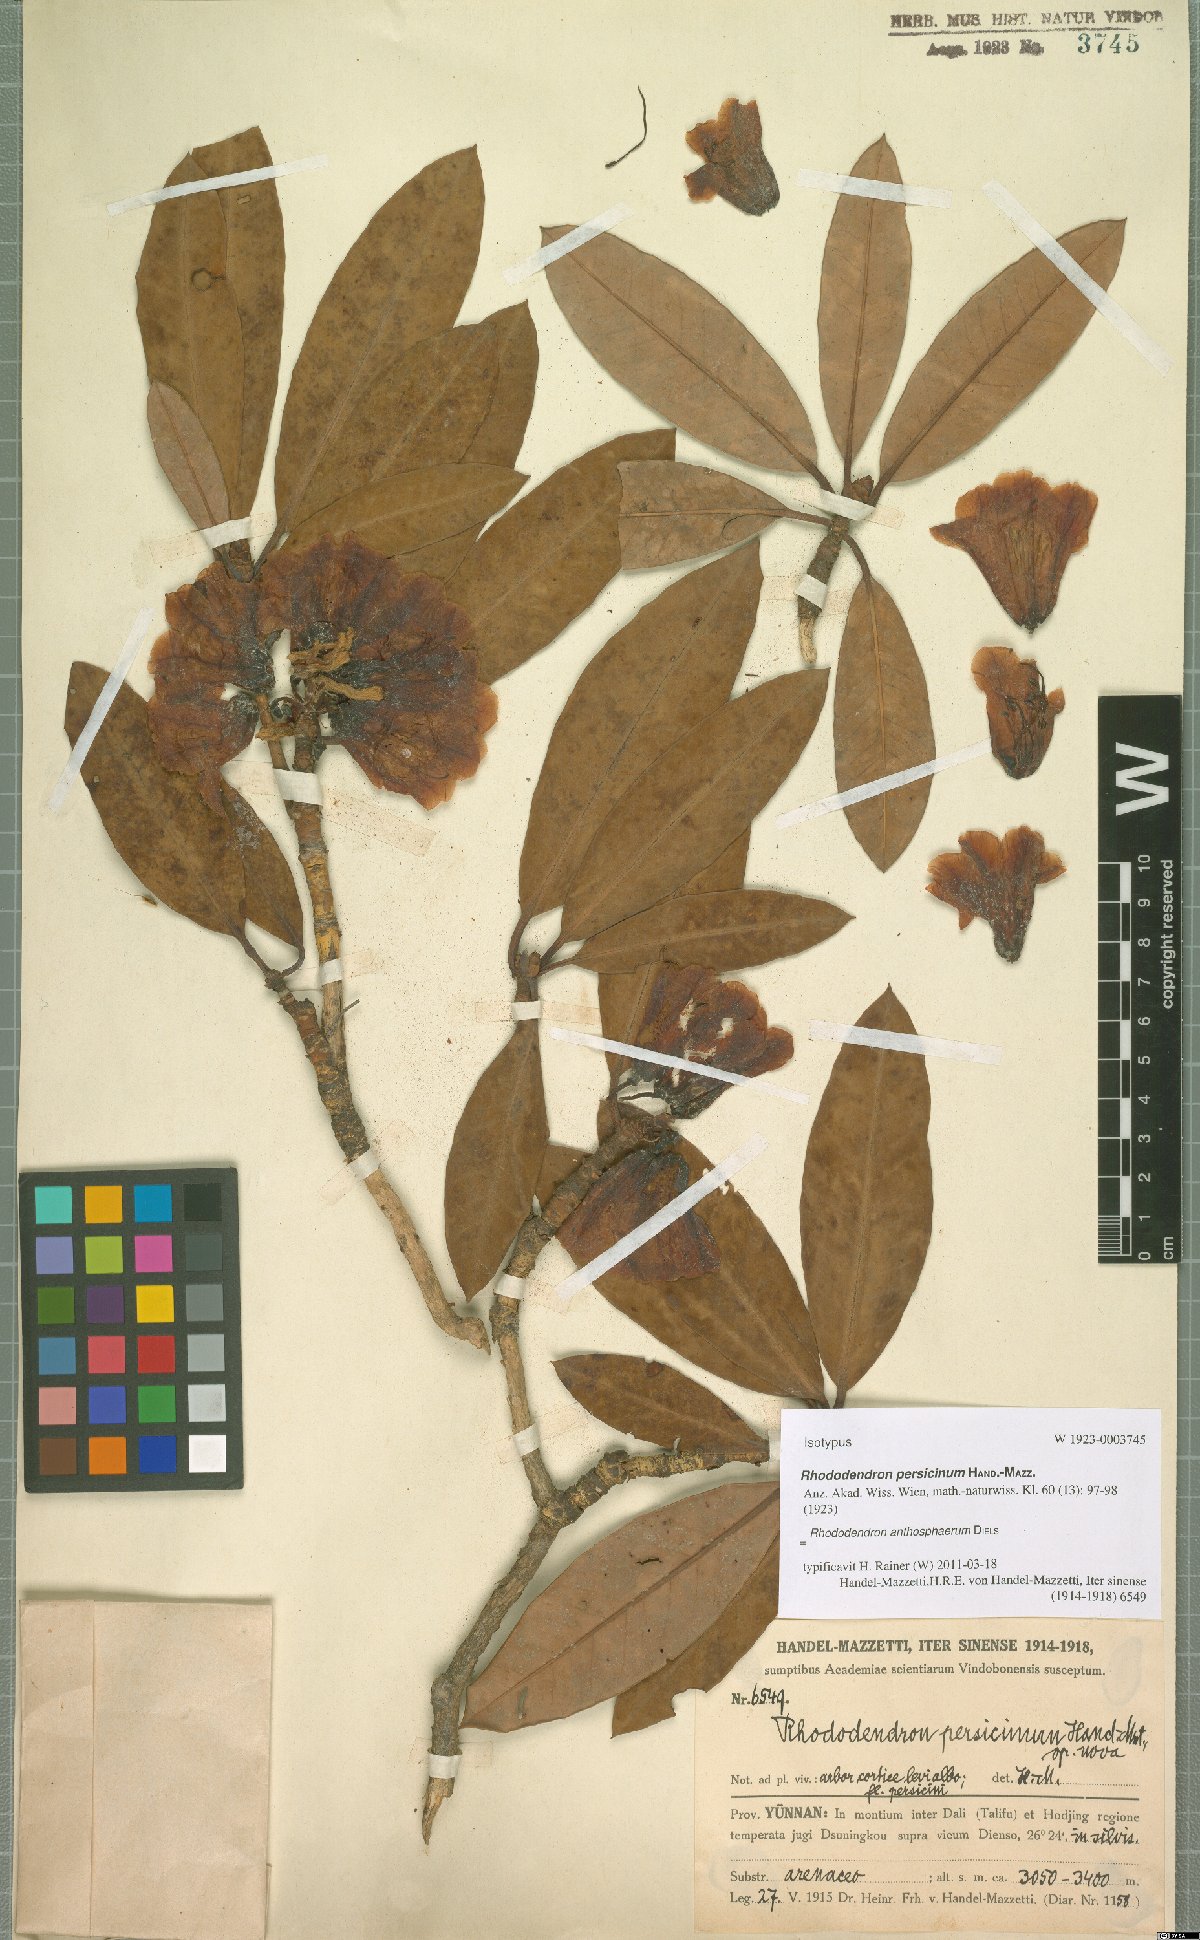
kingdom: Plantae
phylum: Tracheophyta
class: Magnoliopsida
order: Ericales
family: Ericaceae
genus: Rhododendron
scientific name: Rhododendron anthosphaerum
